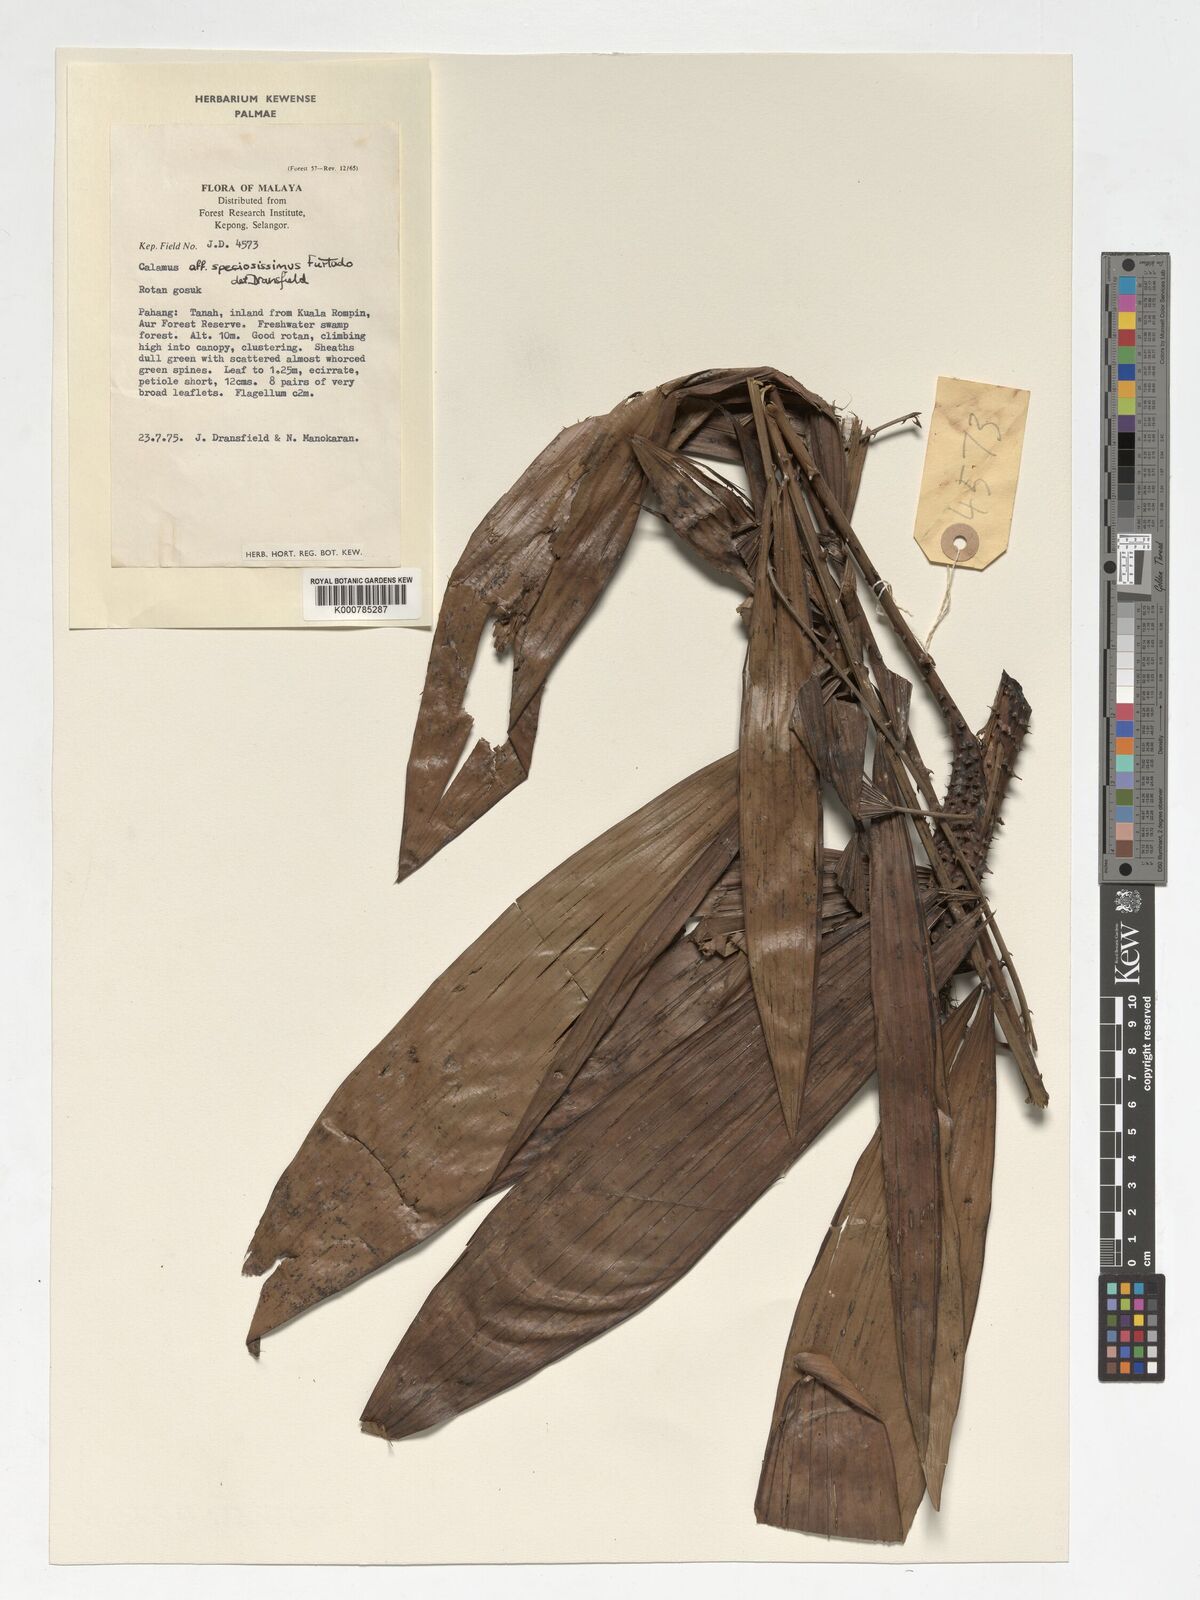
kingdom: Plantae
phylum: Tracheophyta
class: Liliopsida
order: Arecales
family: Arecaceae
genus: Calamus
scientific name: Calamus micranthus
